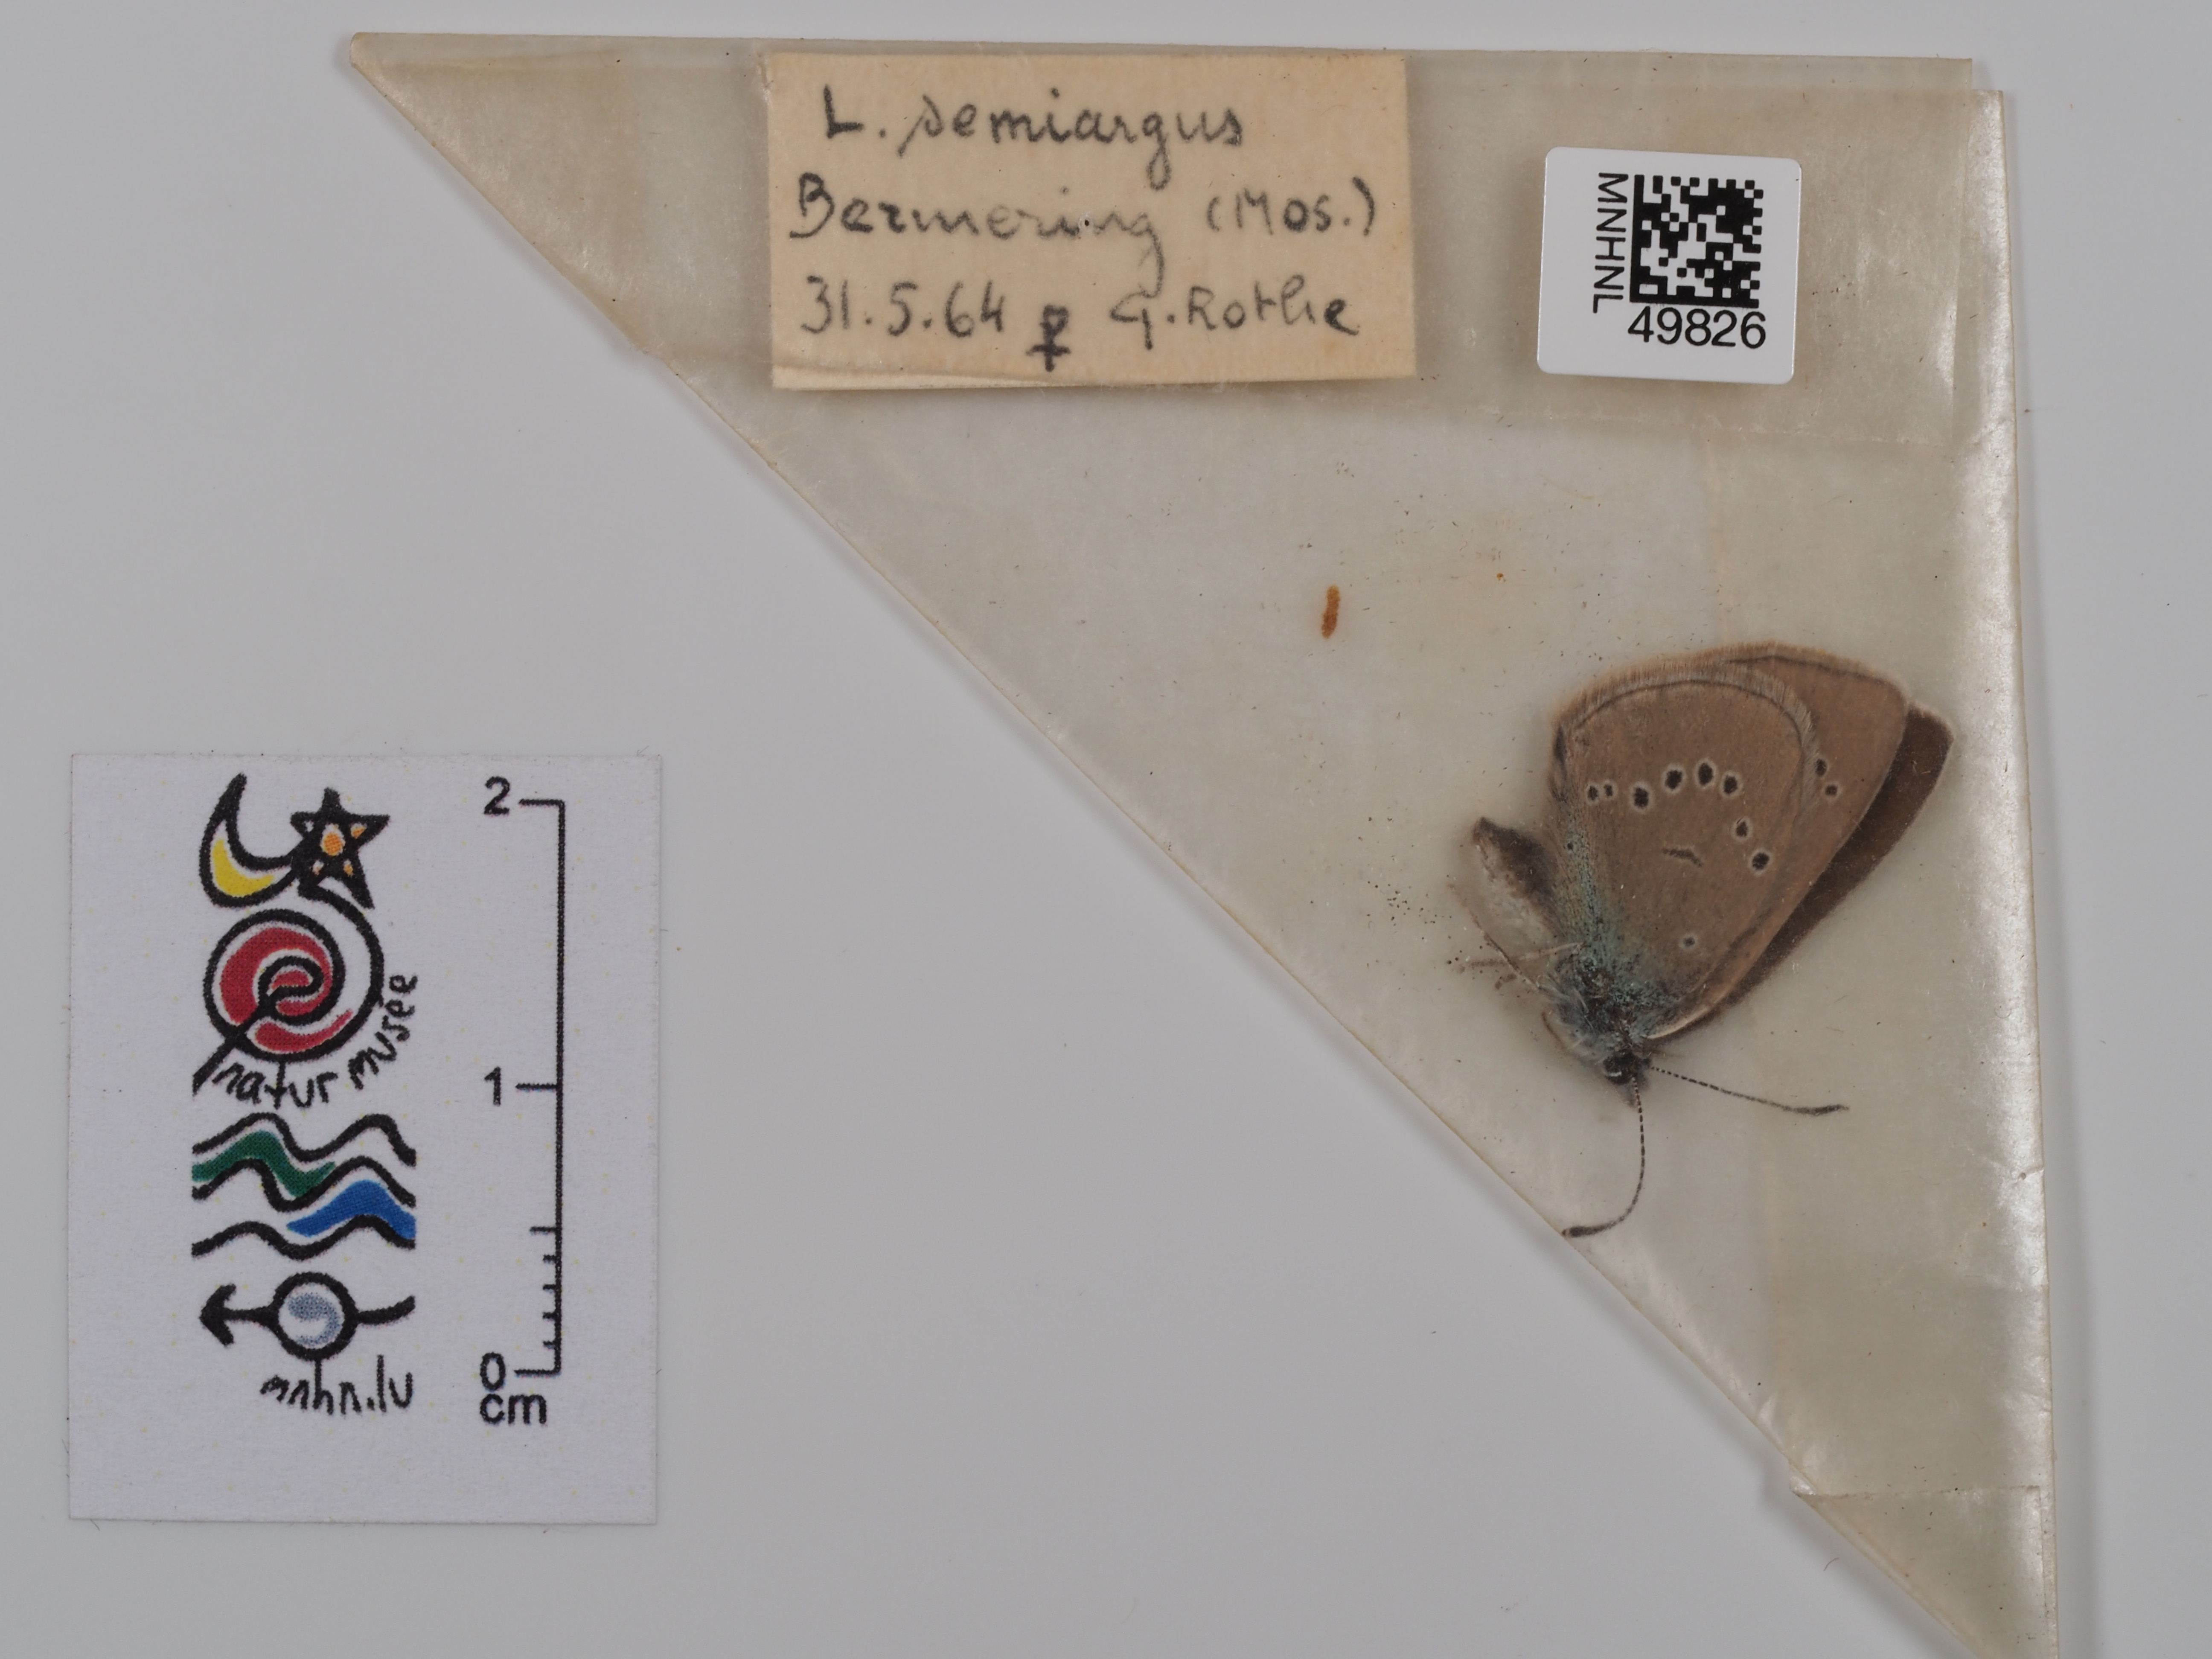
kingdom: Animalia
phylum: Arthropoda
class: Insecta
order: Lepidoptera
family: Lycaenidae
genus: Lycaena
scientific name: Lycaena meleager
